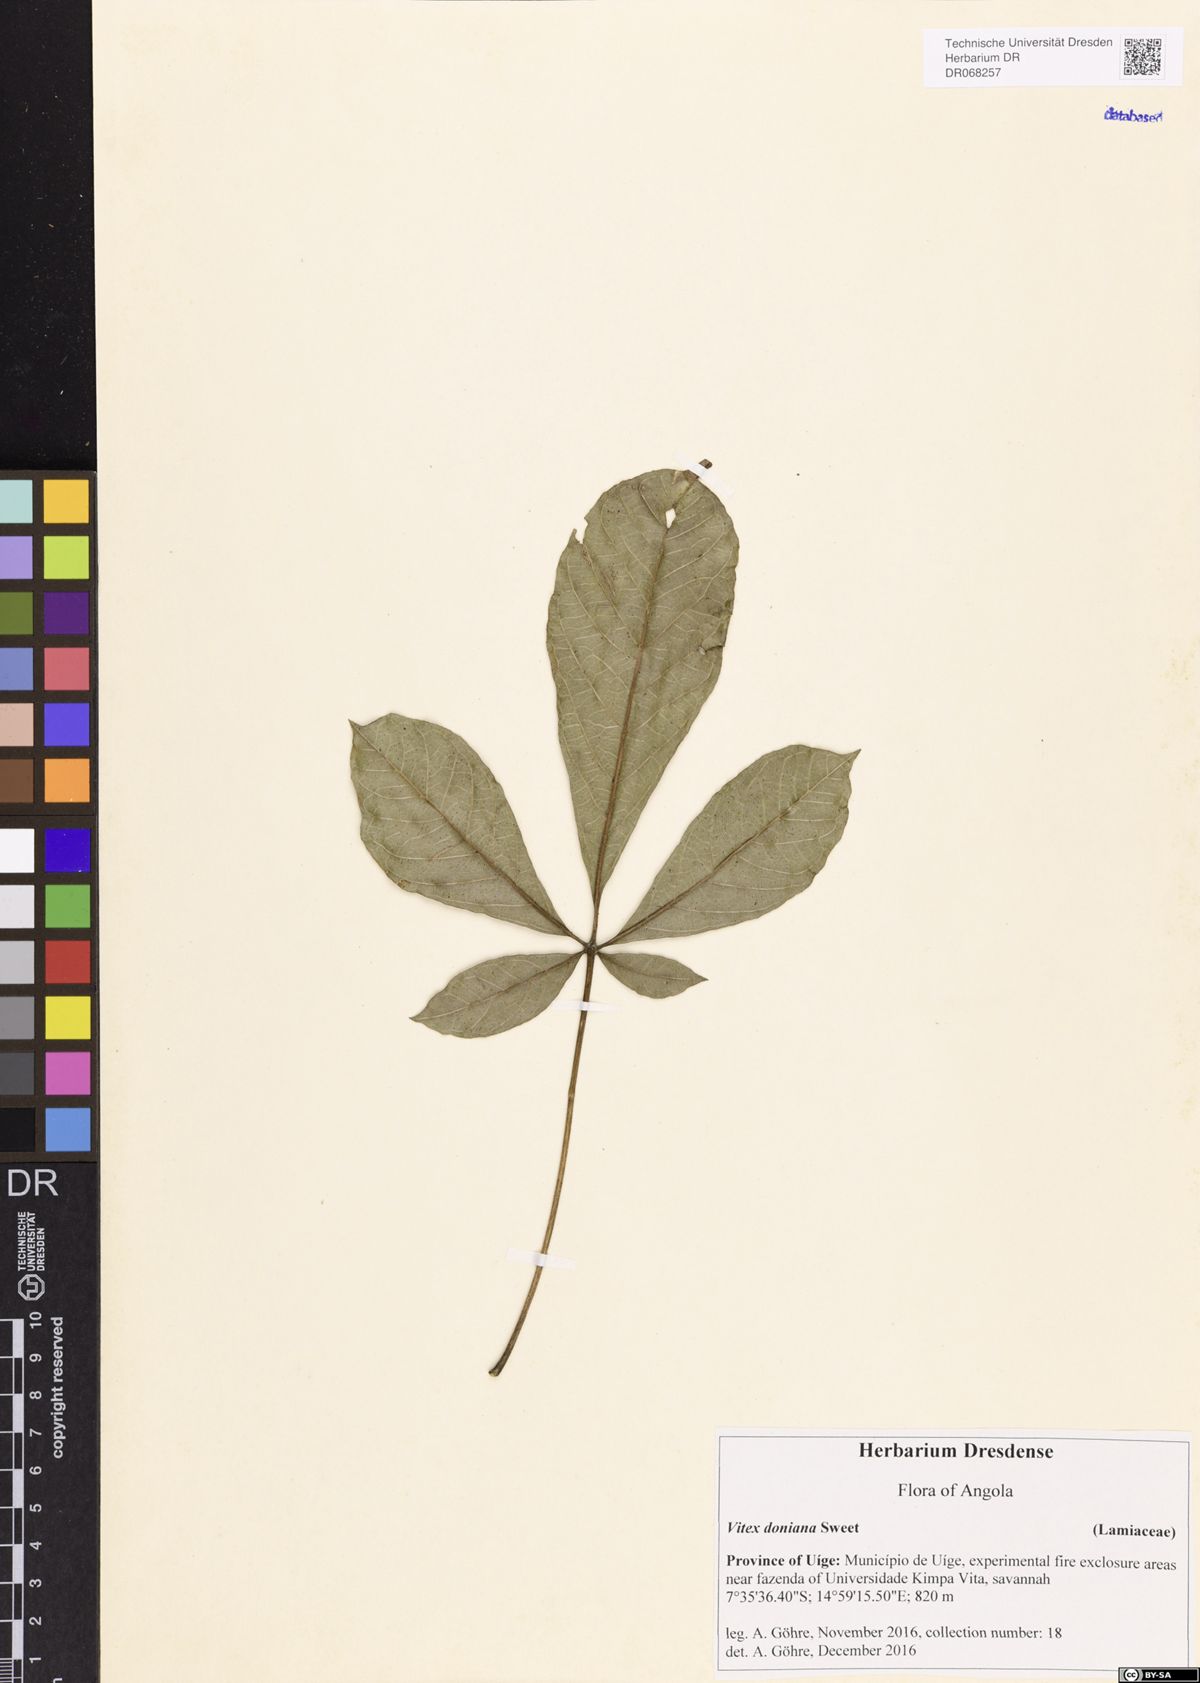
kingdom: Plantae
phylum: Tracheophyta
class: Magnoliopsida
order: Lamiales
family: Lamiaceae
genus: Vitex
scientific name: Vitex doniana
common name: Black plum
